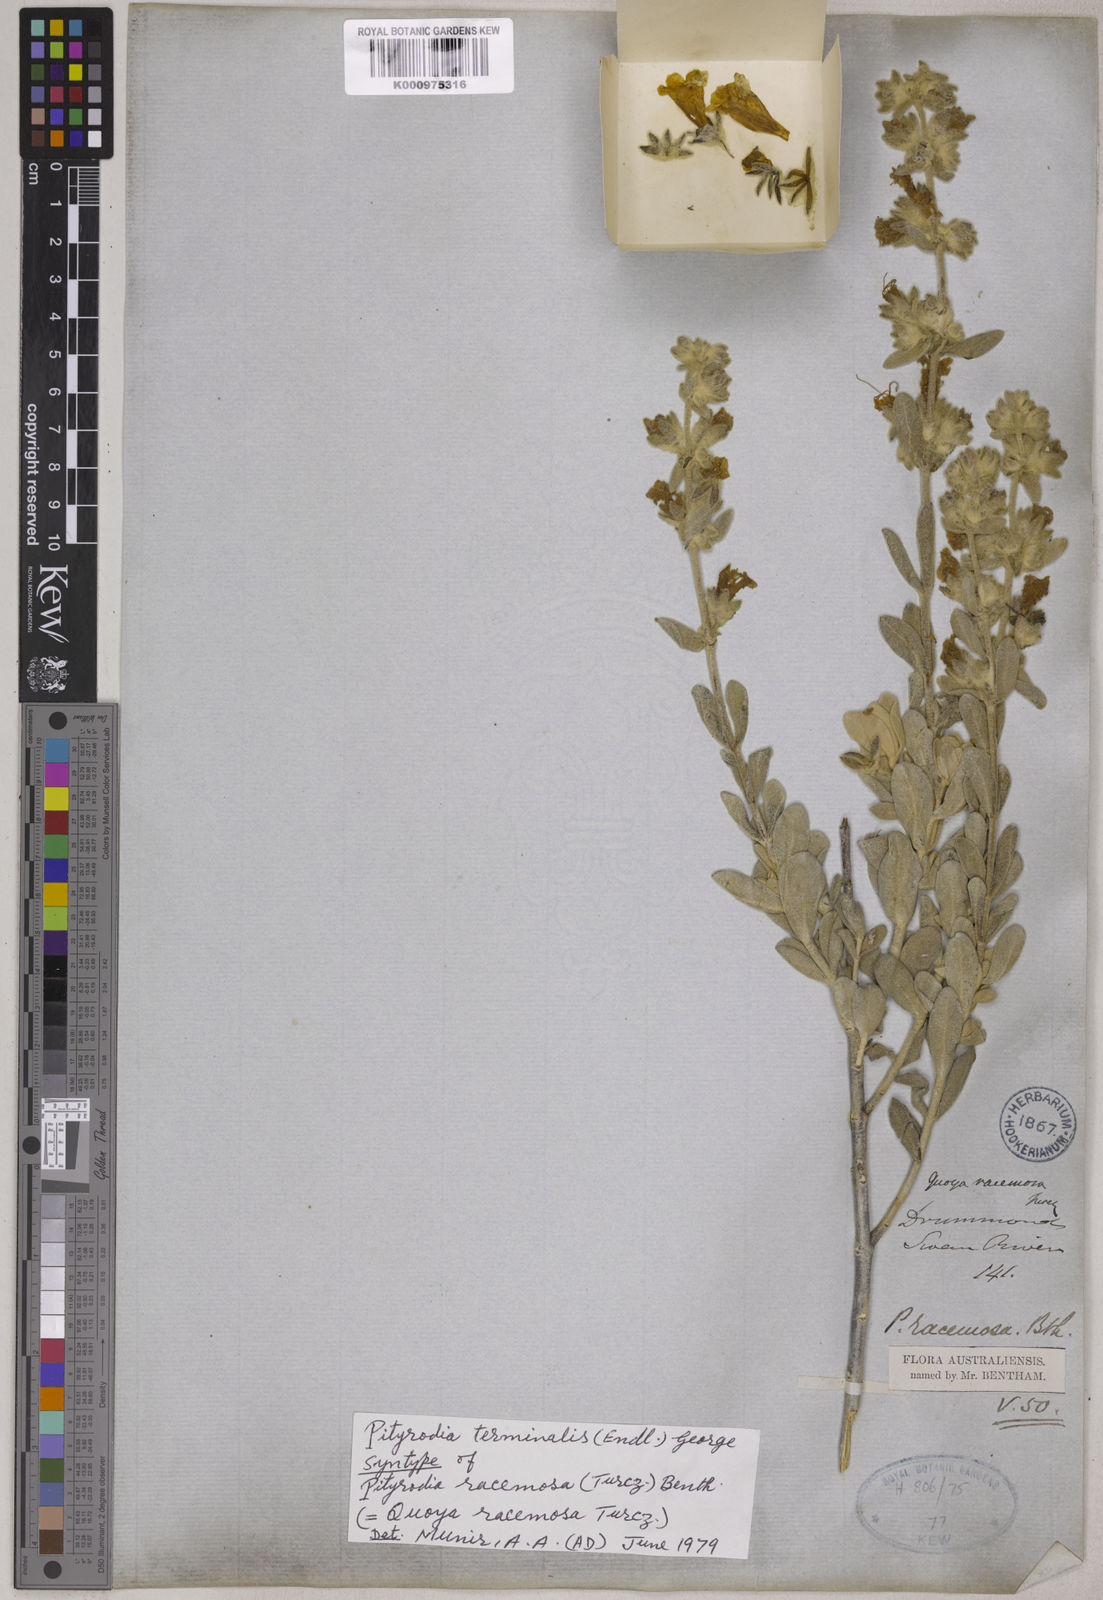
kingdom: Plantae
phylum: Tracheophyta
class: Magnoliopsida
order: Lamiales
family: Lamiaceae
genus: Dasymalla
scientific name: Dasymalla terminalis
